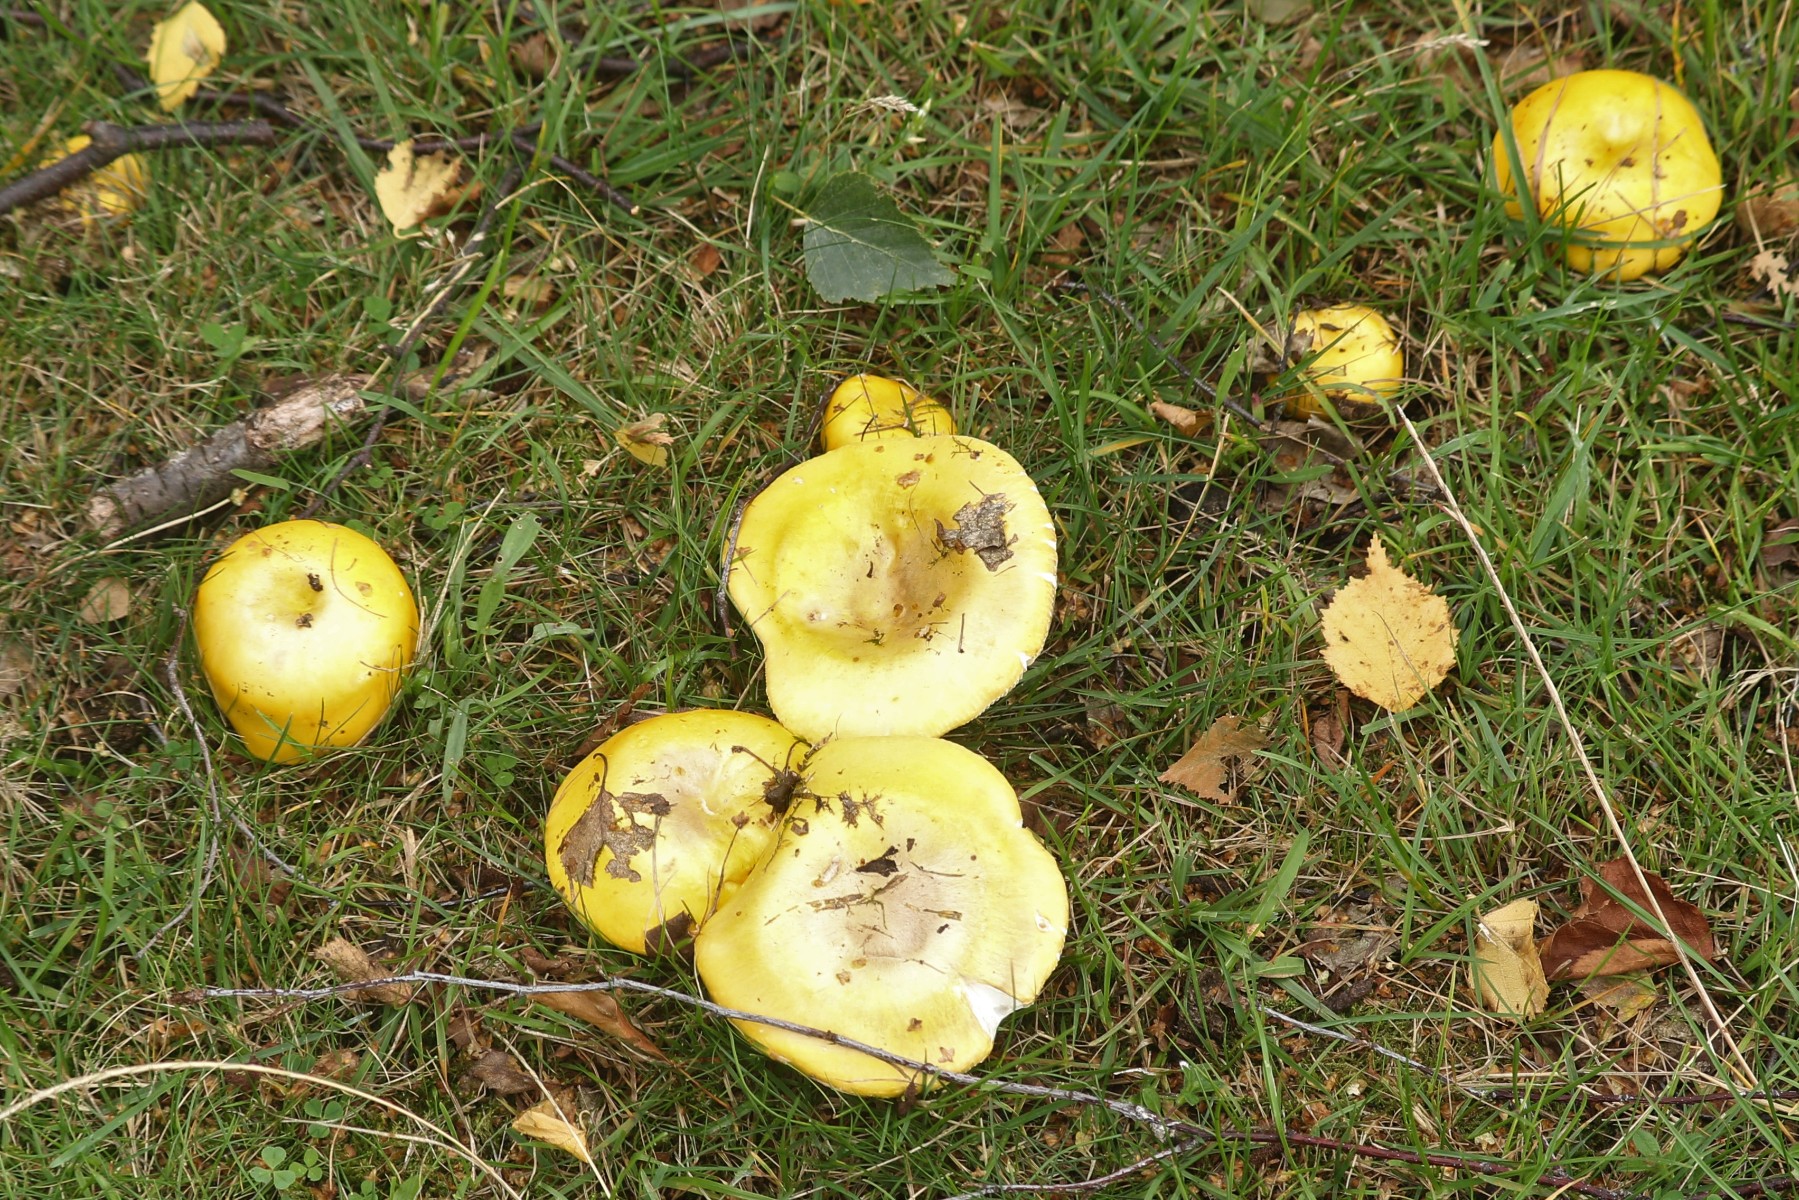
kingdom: Fungi
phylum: Basidiomycota
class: Agaricomycetes
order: Russulales
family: Russulaceae
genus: Russula
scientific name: Russula claroflava
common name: birke-skørhat
